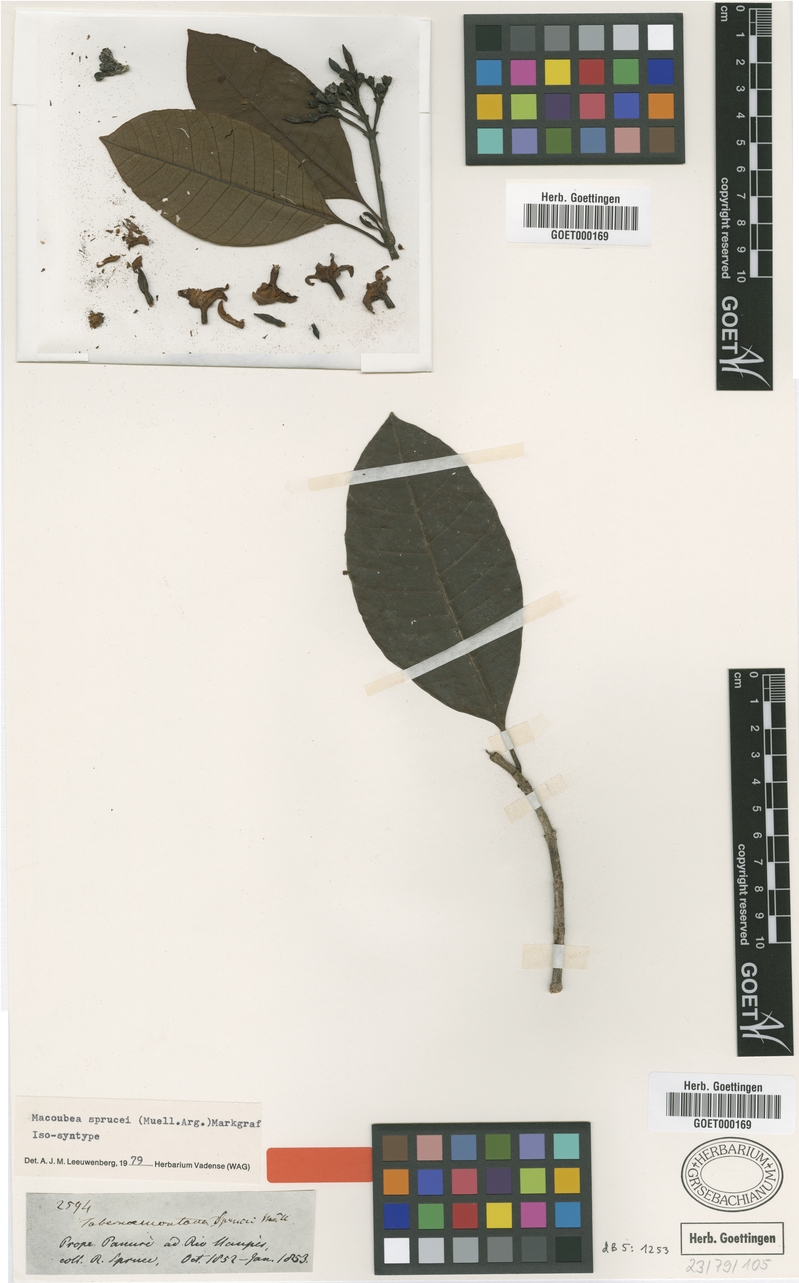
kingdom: Plantae
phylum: Tracheophyta
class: Magnoliopsida
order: Gentianales
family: Apocynaceae
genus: Macoubea
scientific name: Macoubea sprucei
